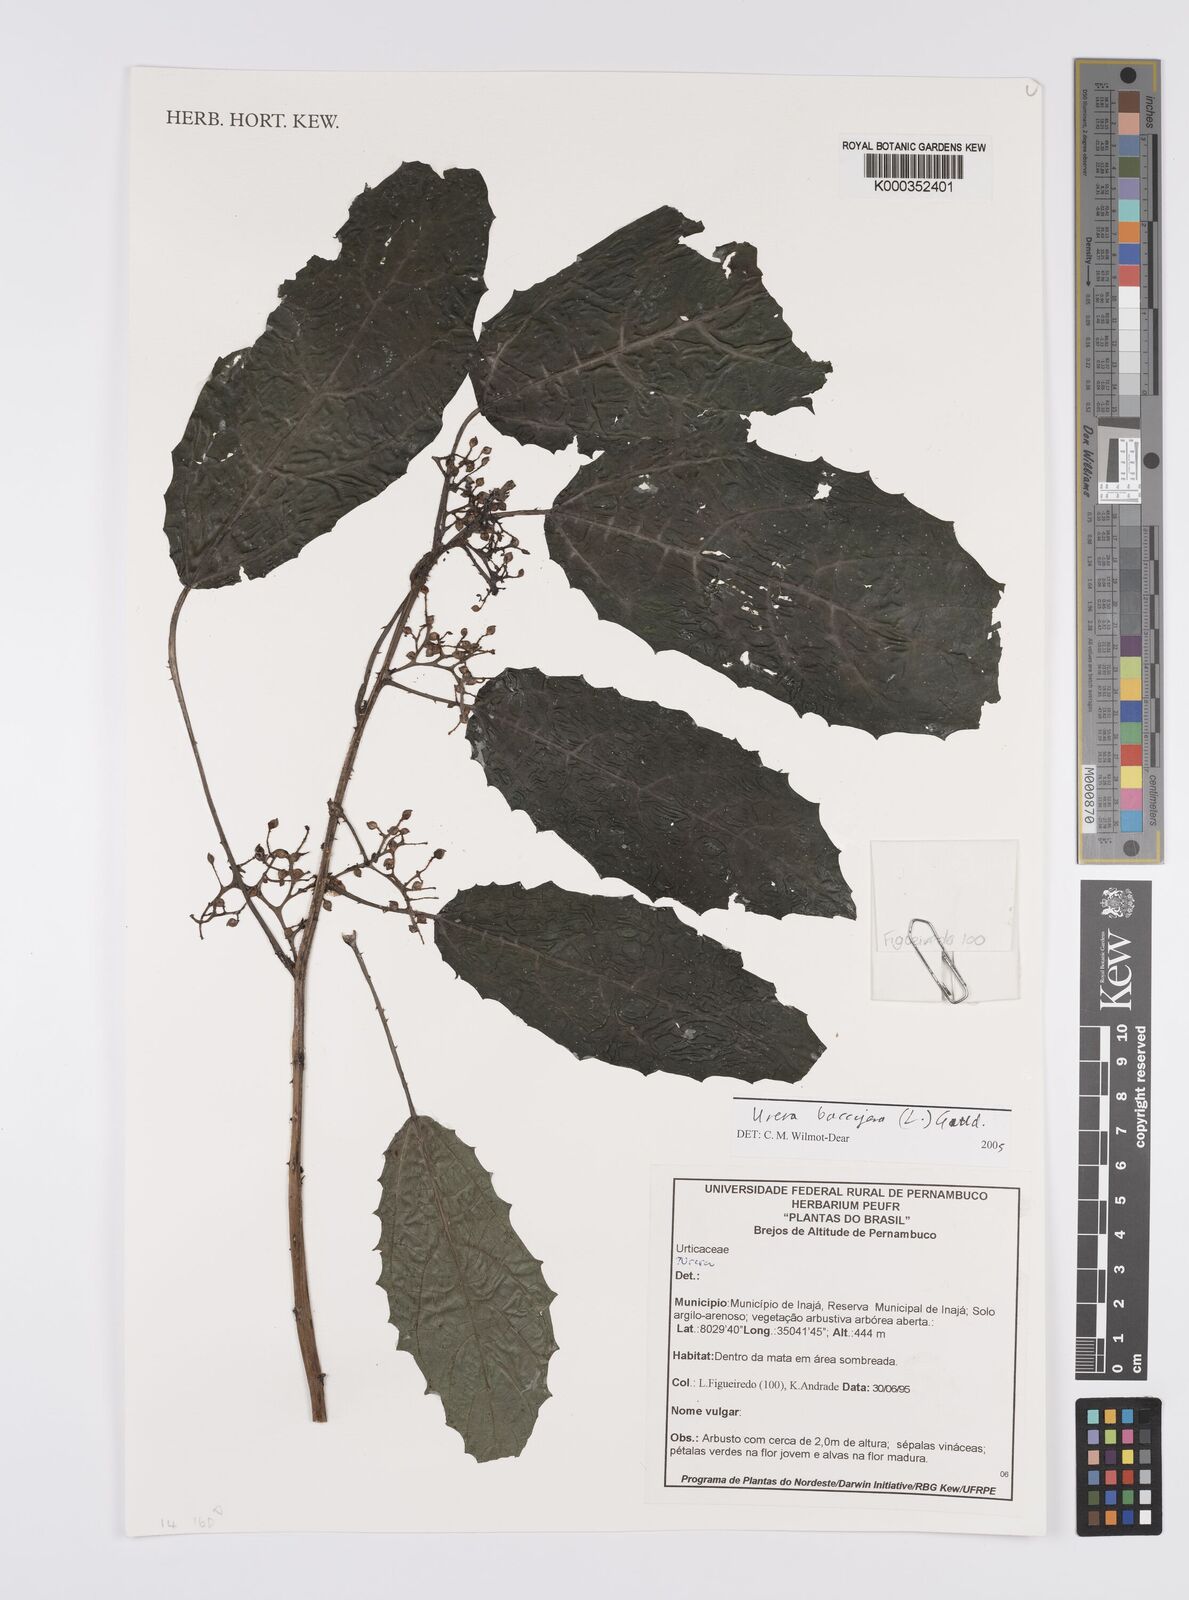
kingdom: Plantae
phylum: Tracheophyta
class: Magnoliopsida
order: Rosales
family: Urticaceae
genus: Urera
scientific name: Urera
